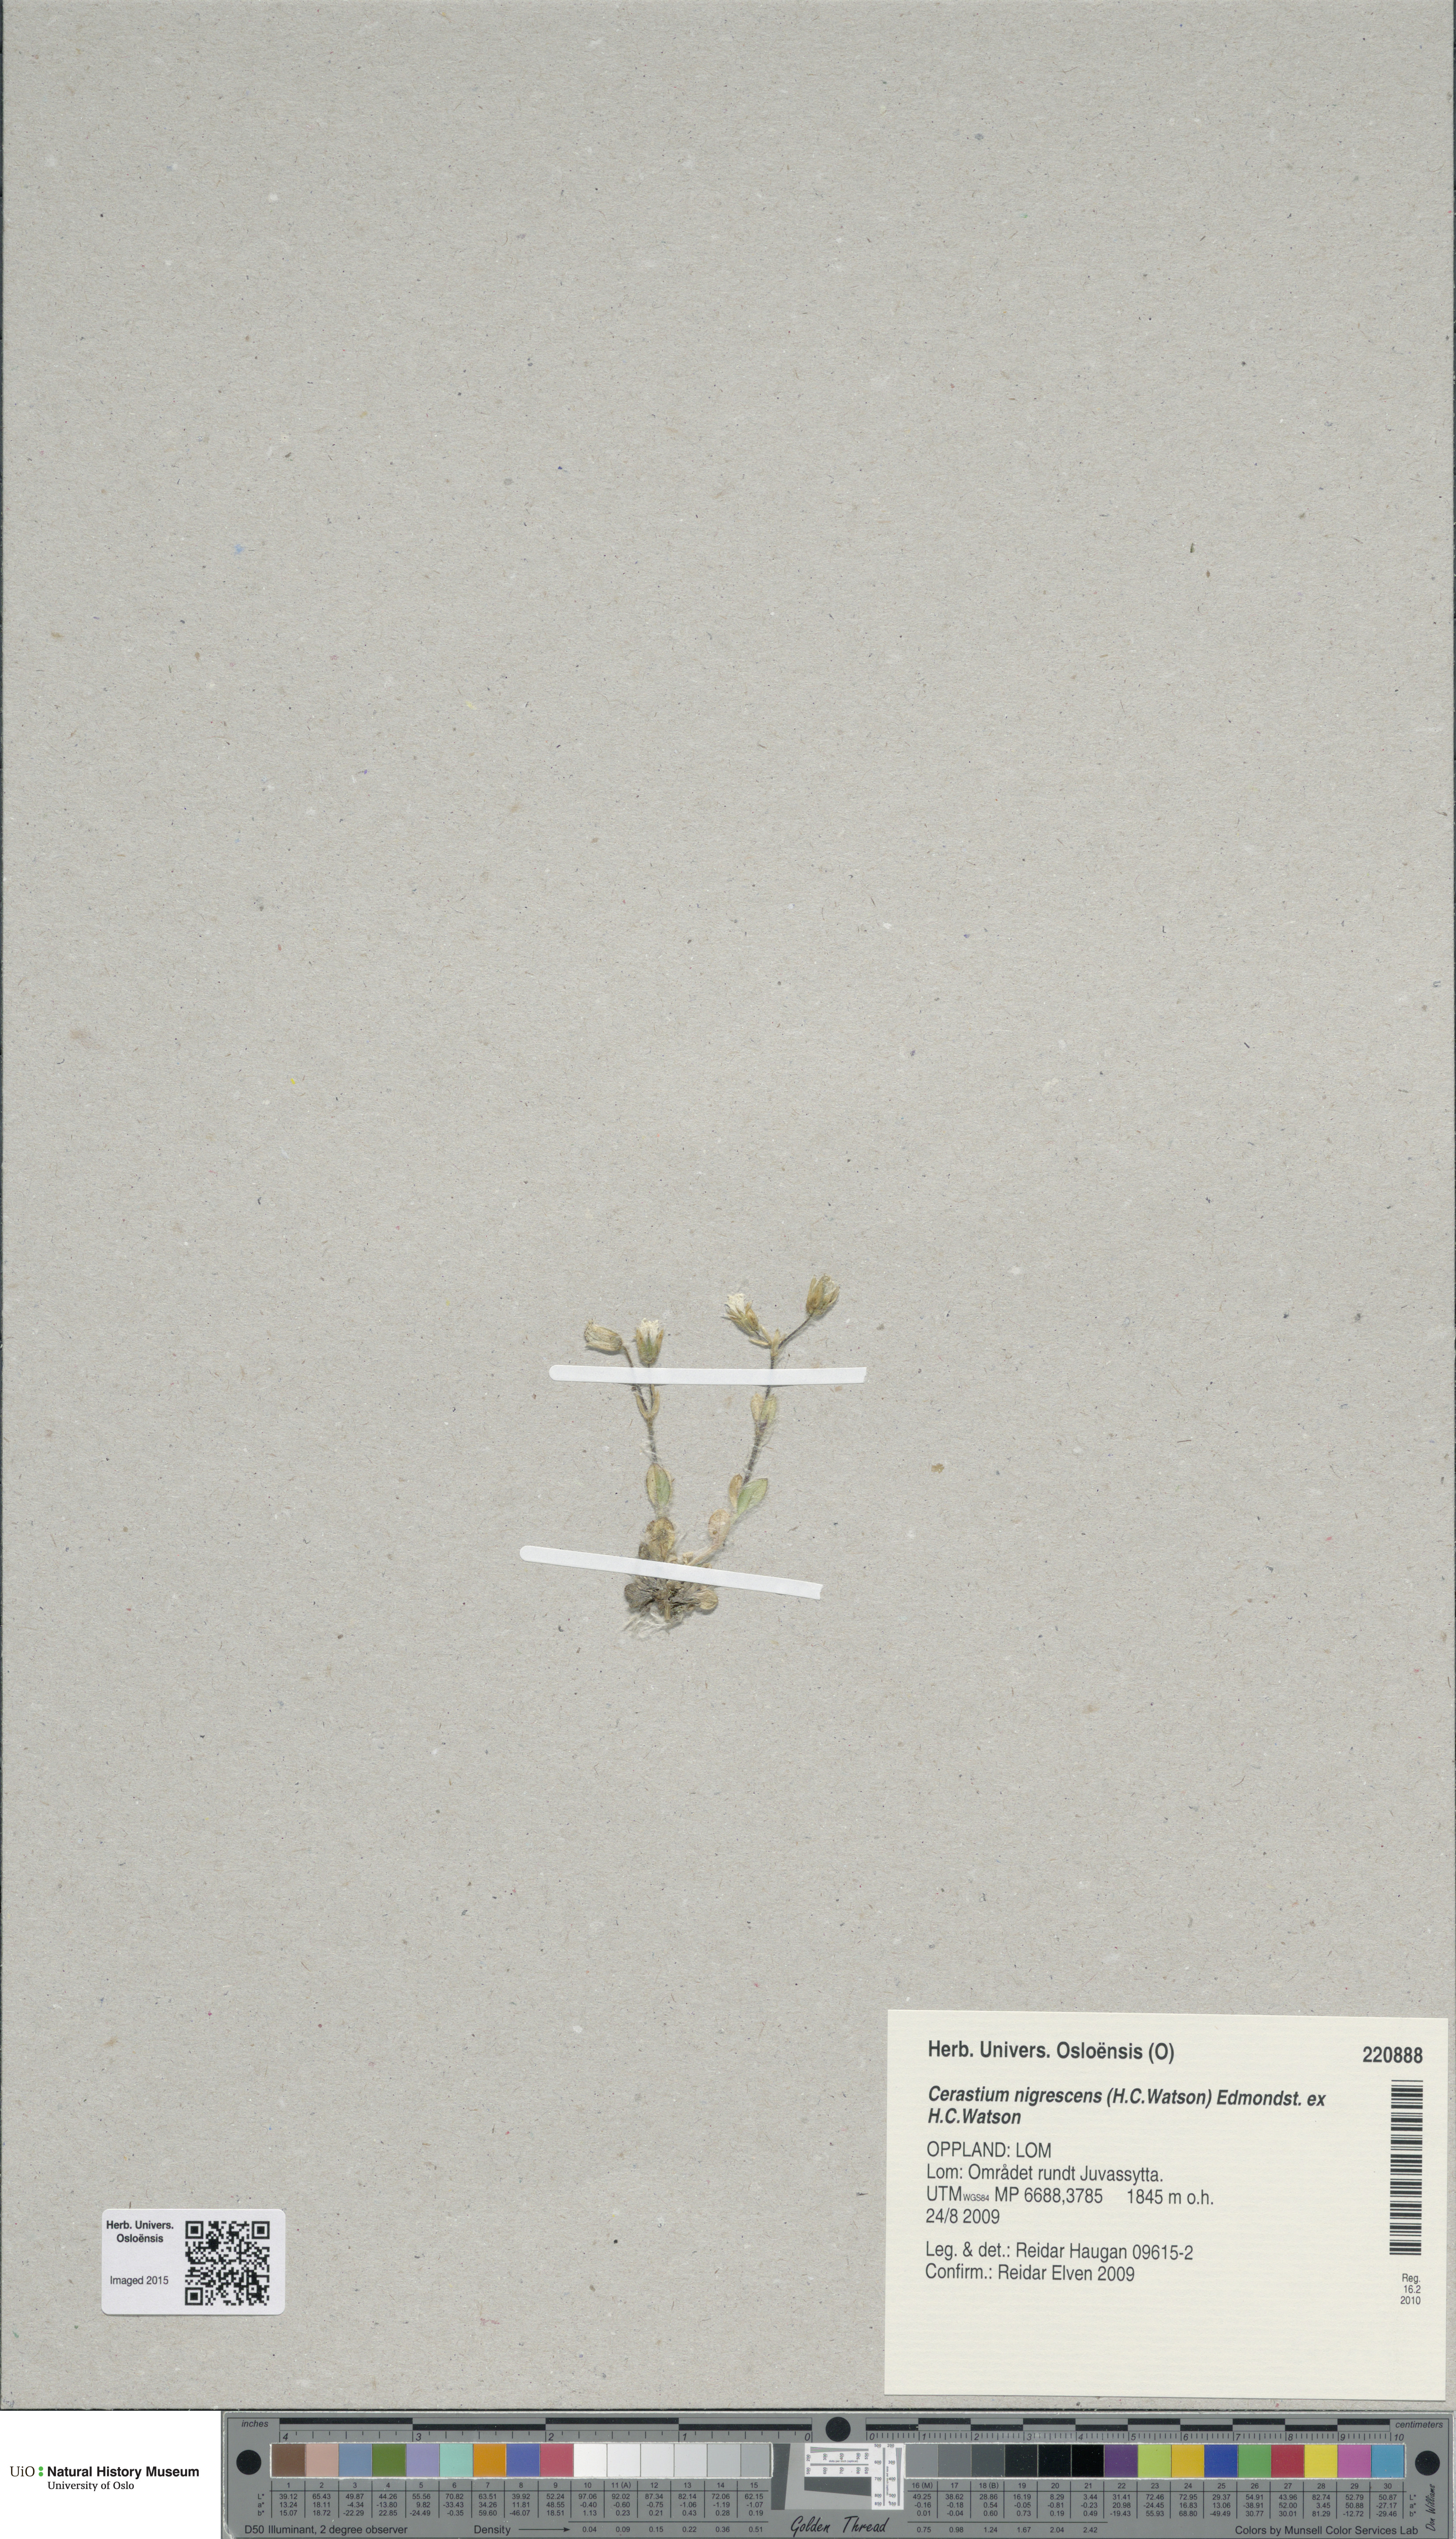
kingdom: Plantae
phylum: Tracheophyta
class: Magnoliopsida
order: Caryophyllales
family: Caryophyllaceae
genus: Cerastium
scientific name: Cerastium nigrescens
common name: Shetland mouse-ear
